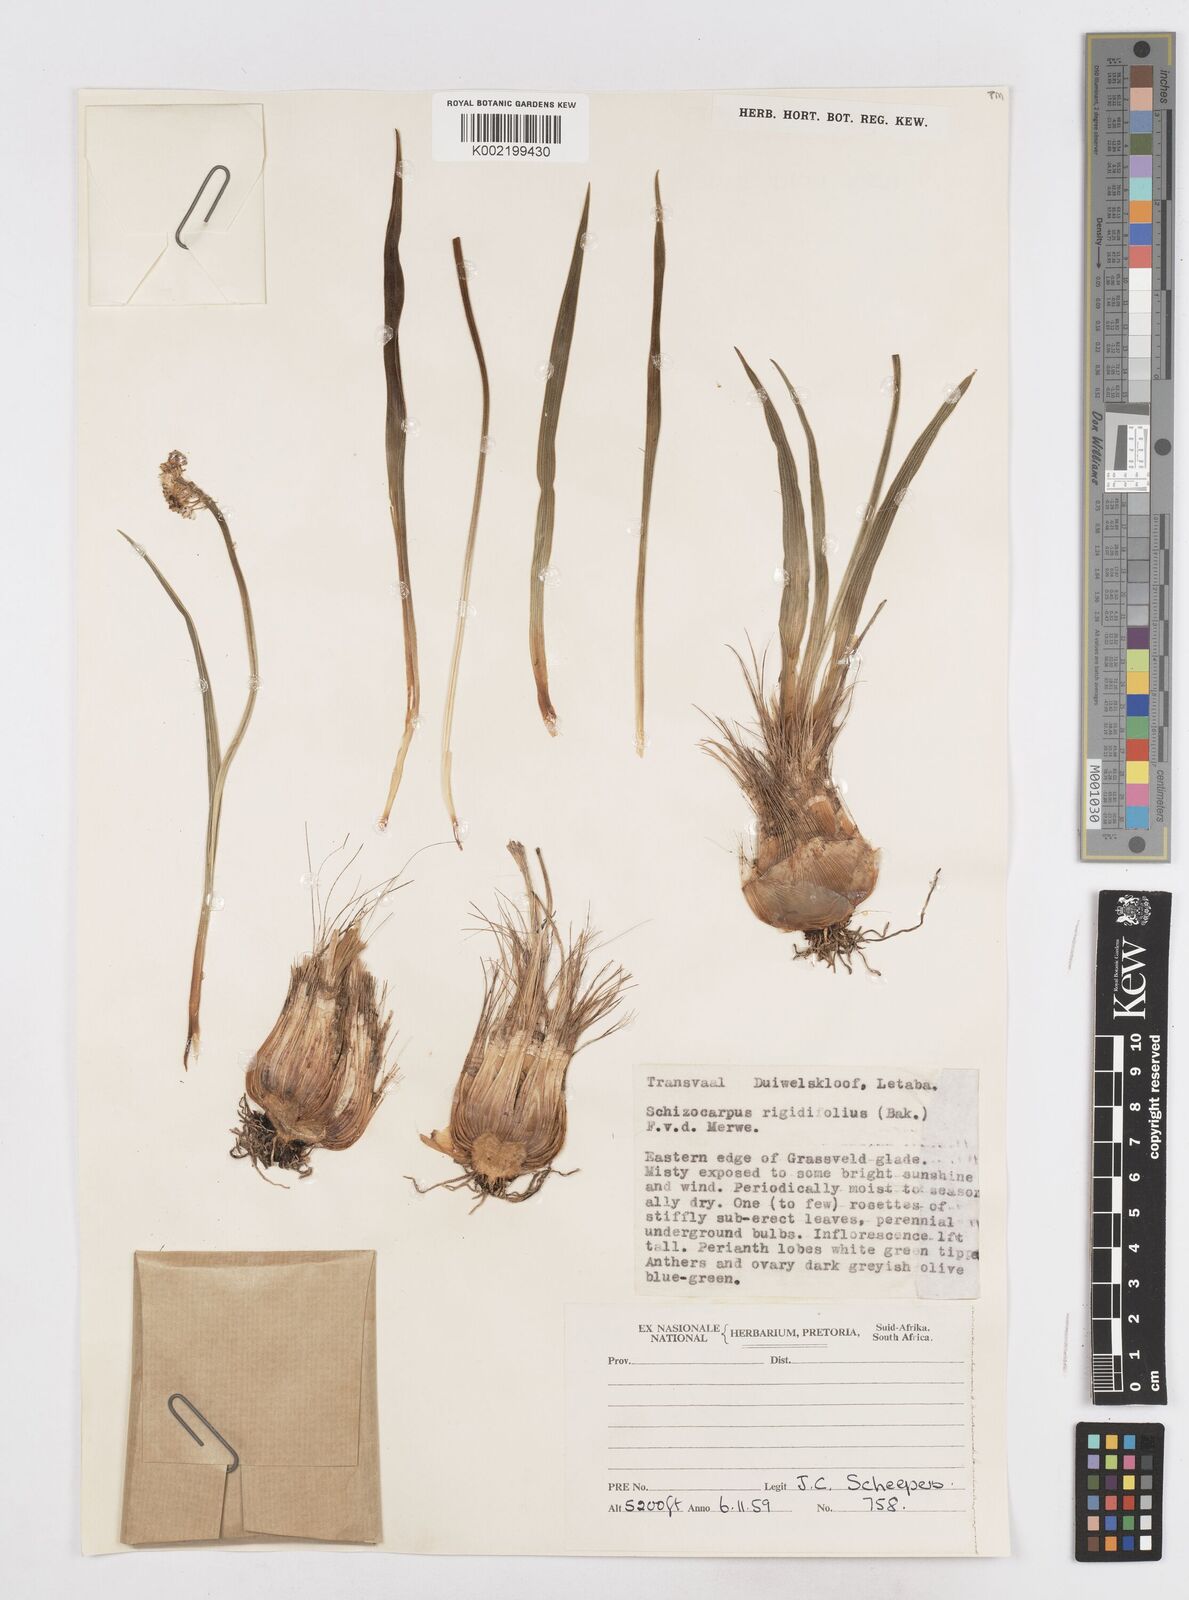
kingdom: Plantae
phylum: Tracheophyta
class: Liliopsida
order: Asparagales
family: Asparagaceae
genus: Schizocarphus
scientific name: Schizocarphus nervosus
